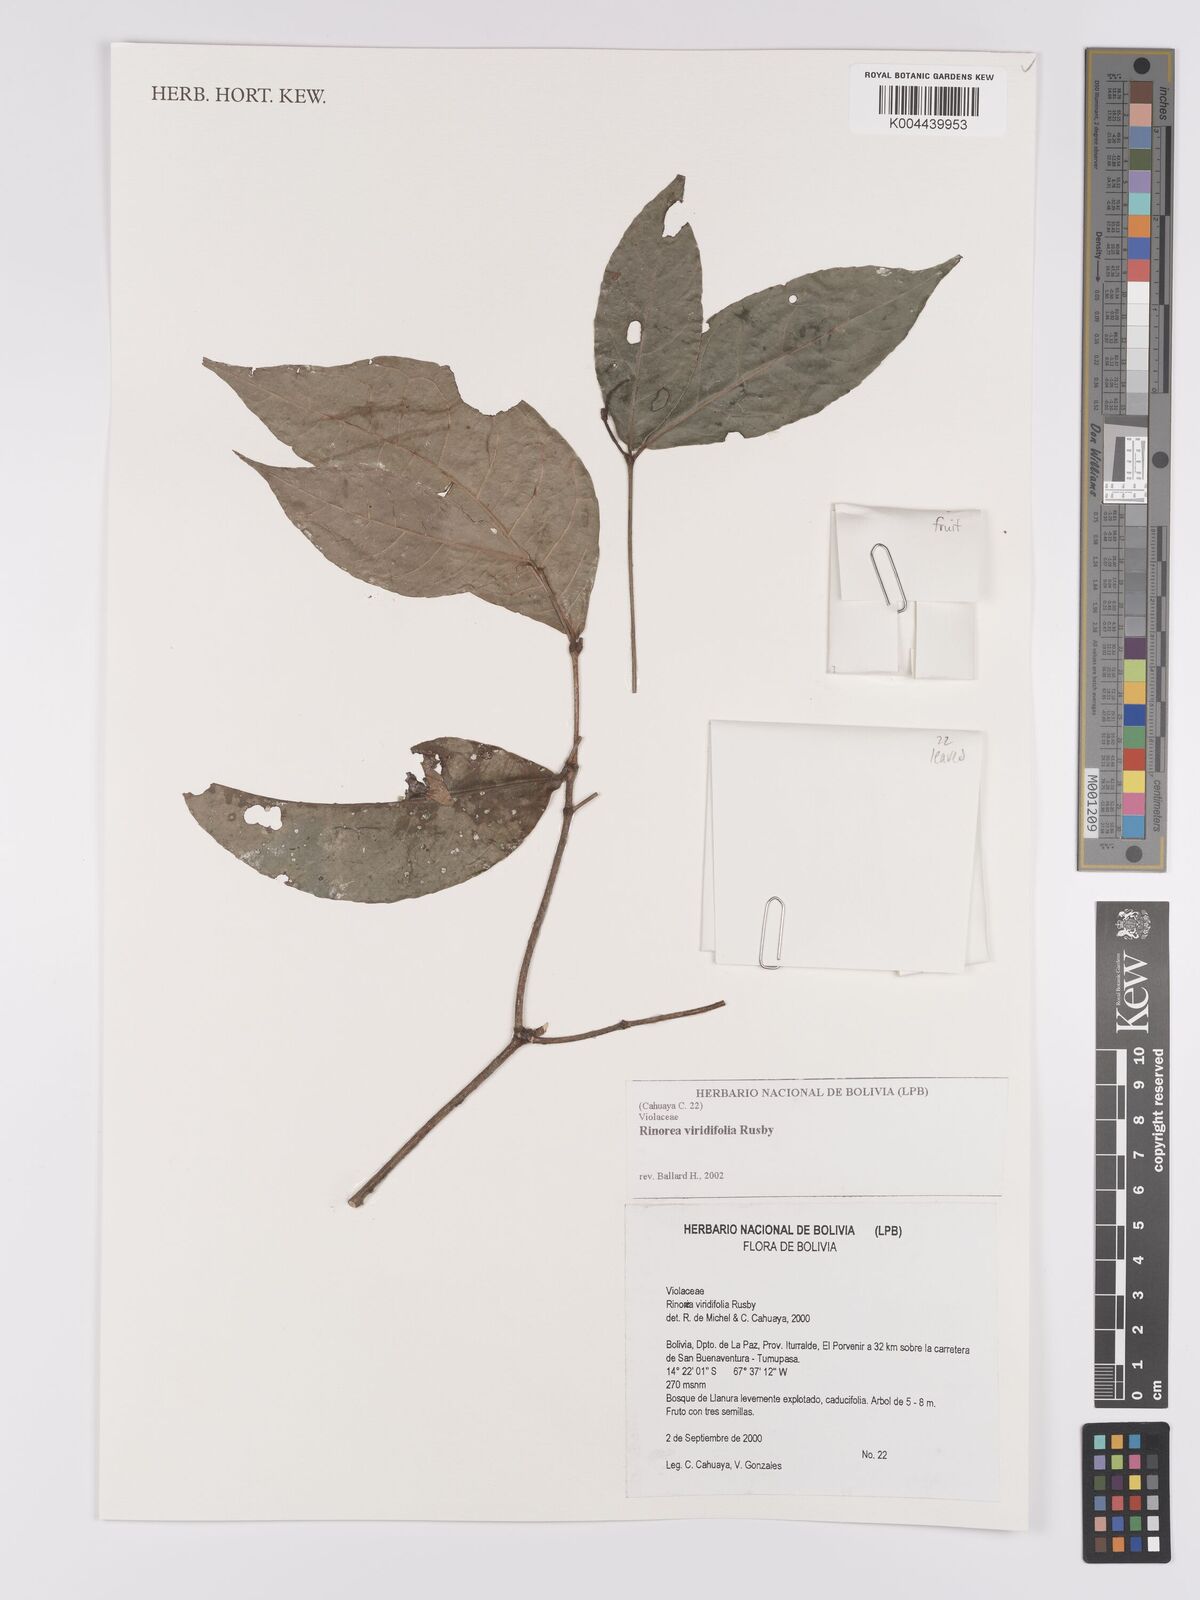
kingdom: Plantae
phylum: Tracheophyta
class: Magnoliopsida
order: Malpighiales
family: Violaceae
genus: Rinorea
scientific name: Rinorea viridifolia
